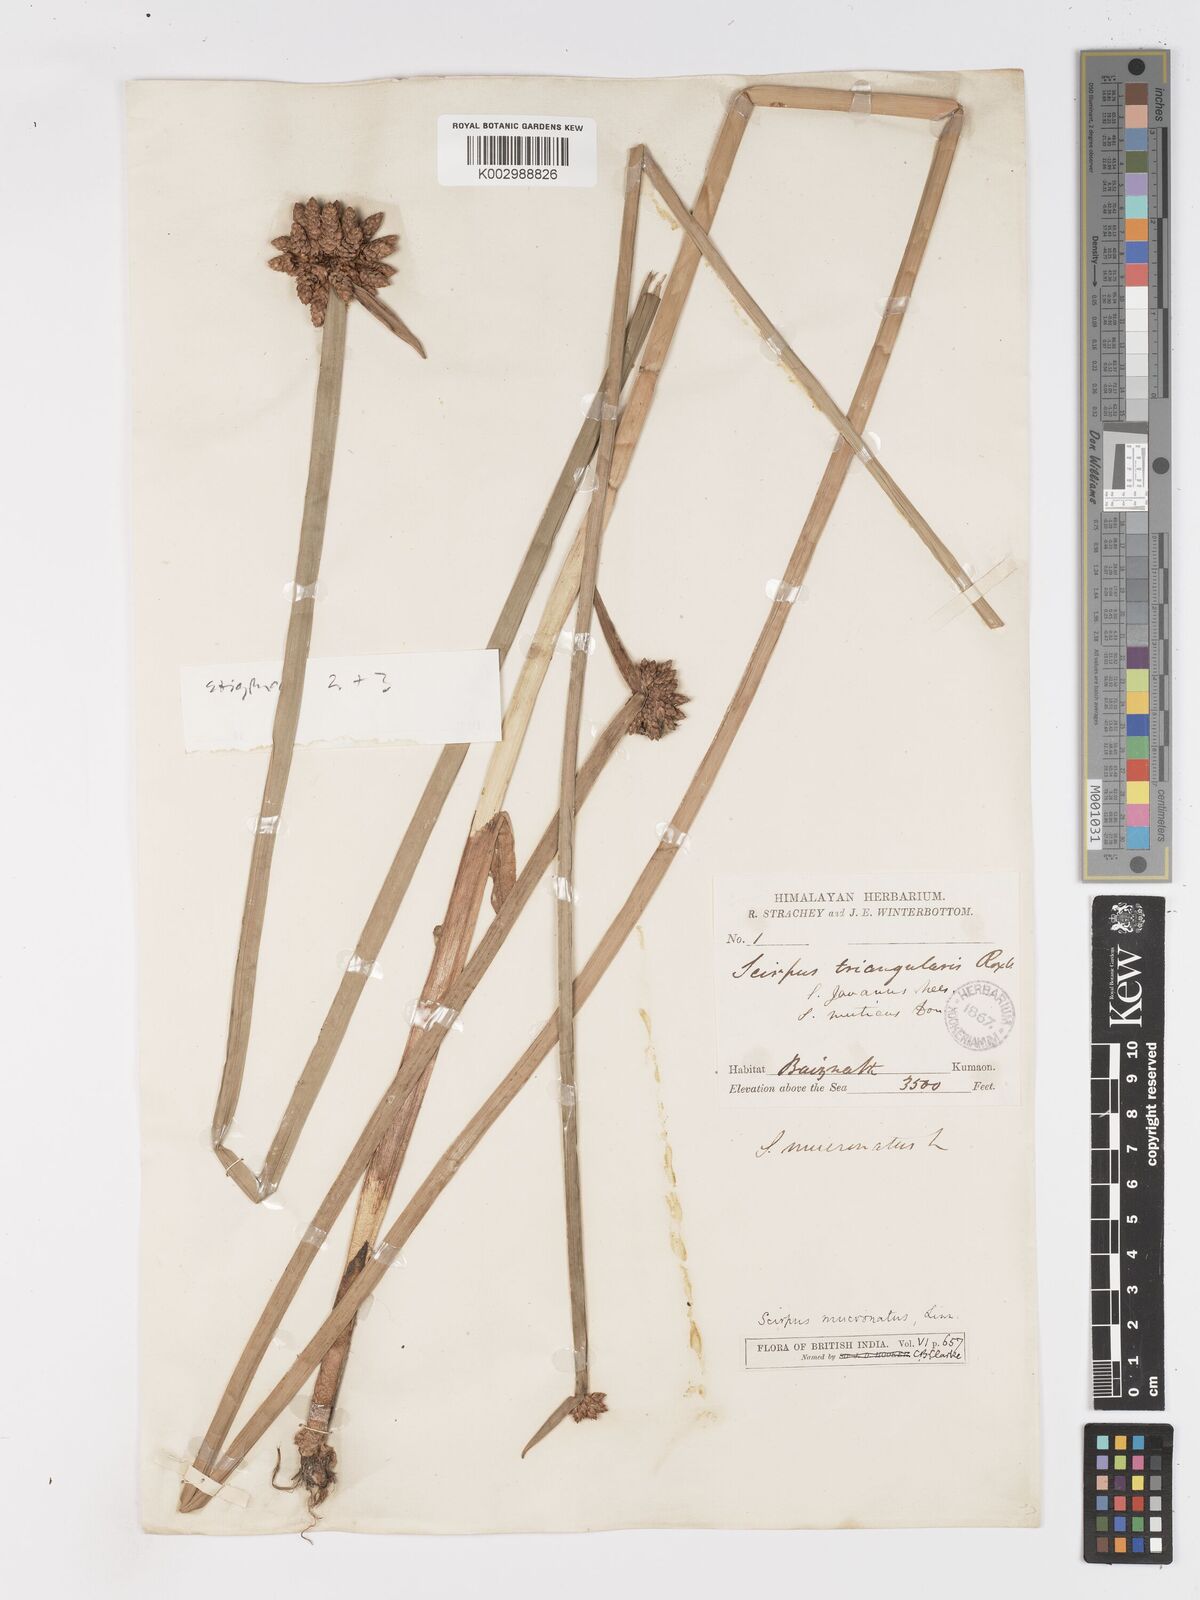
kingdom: Plantae
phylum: Tracheophyta
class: Liliopsida
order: Poales
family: Cyperaceae
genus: Schoenoplectiella
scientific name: Schoenoplectiella mucronata
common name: Bog bulrush
